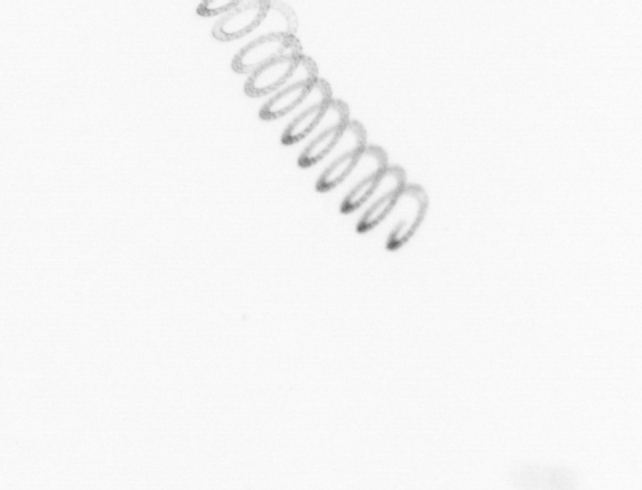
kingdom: Chromista
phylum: Ochrophyta
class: Bacillariophyceae
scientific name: Bacillariophyceae
